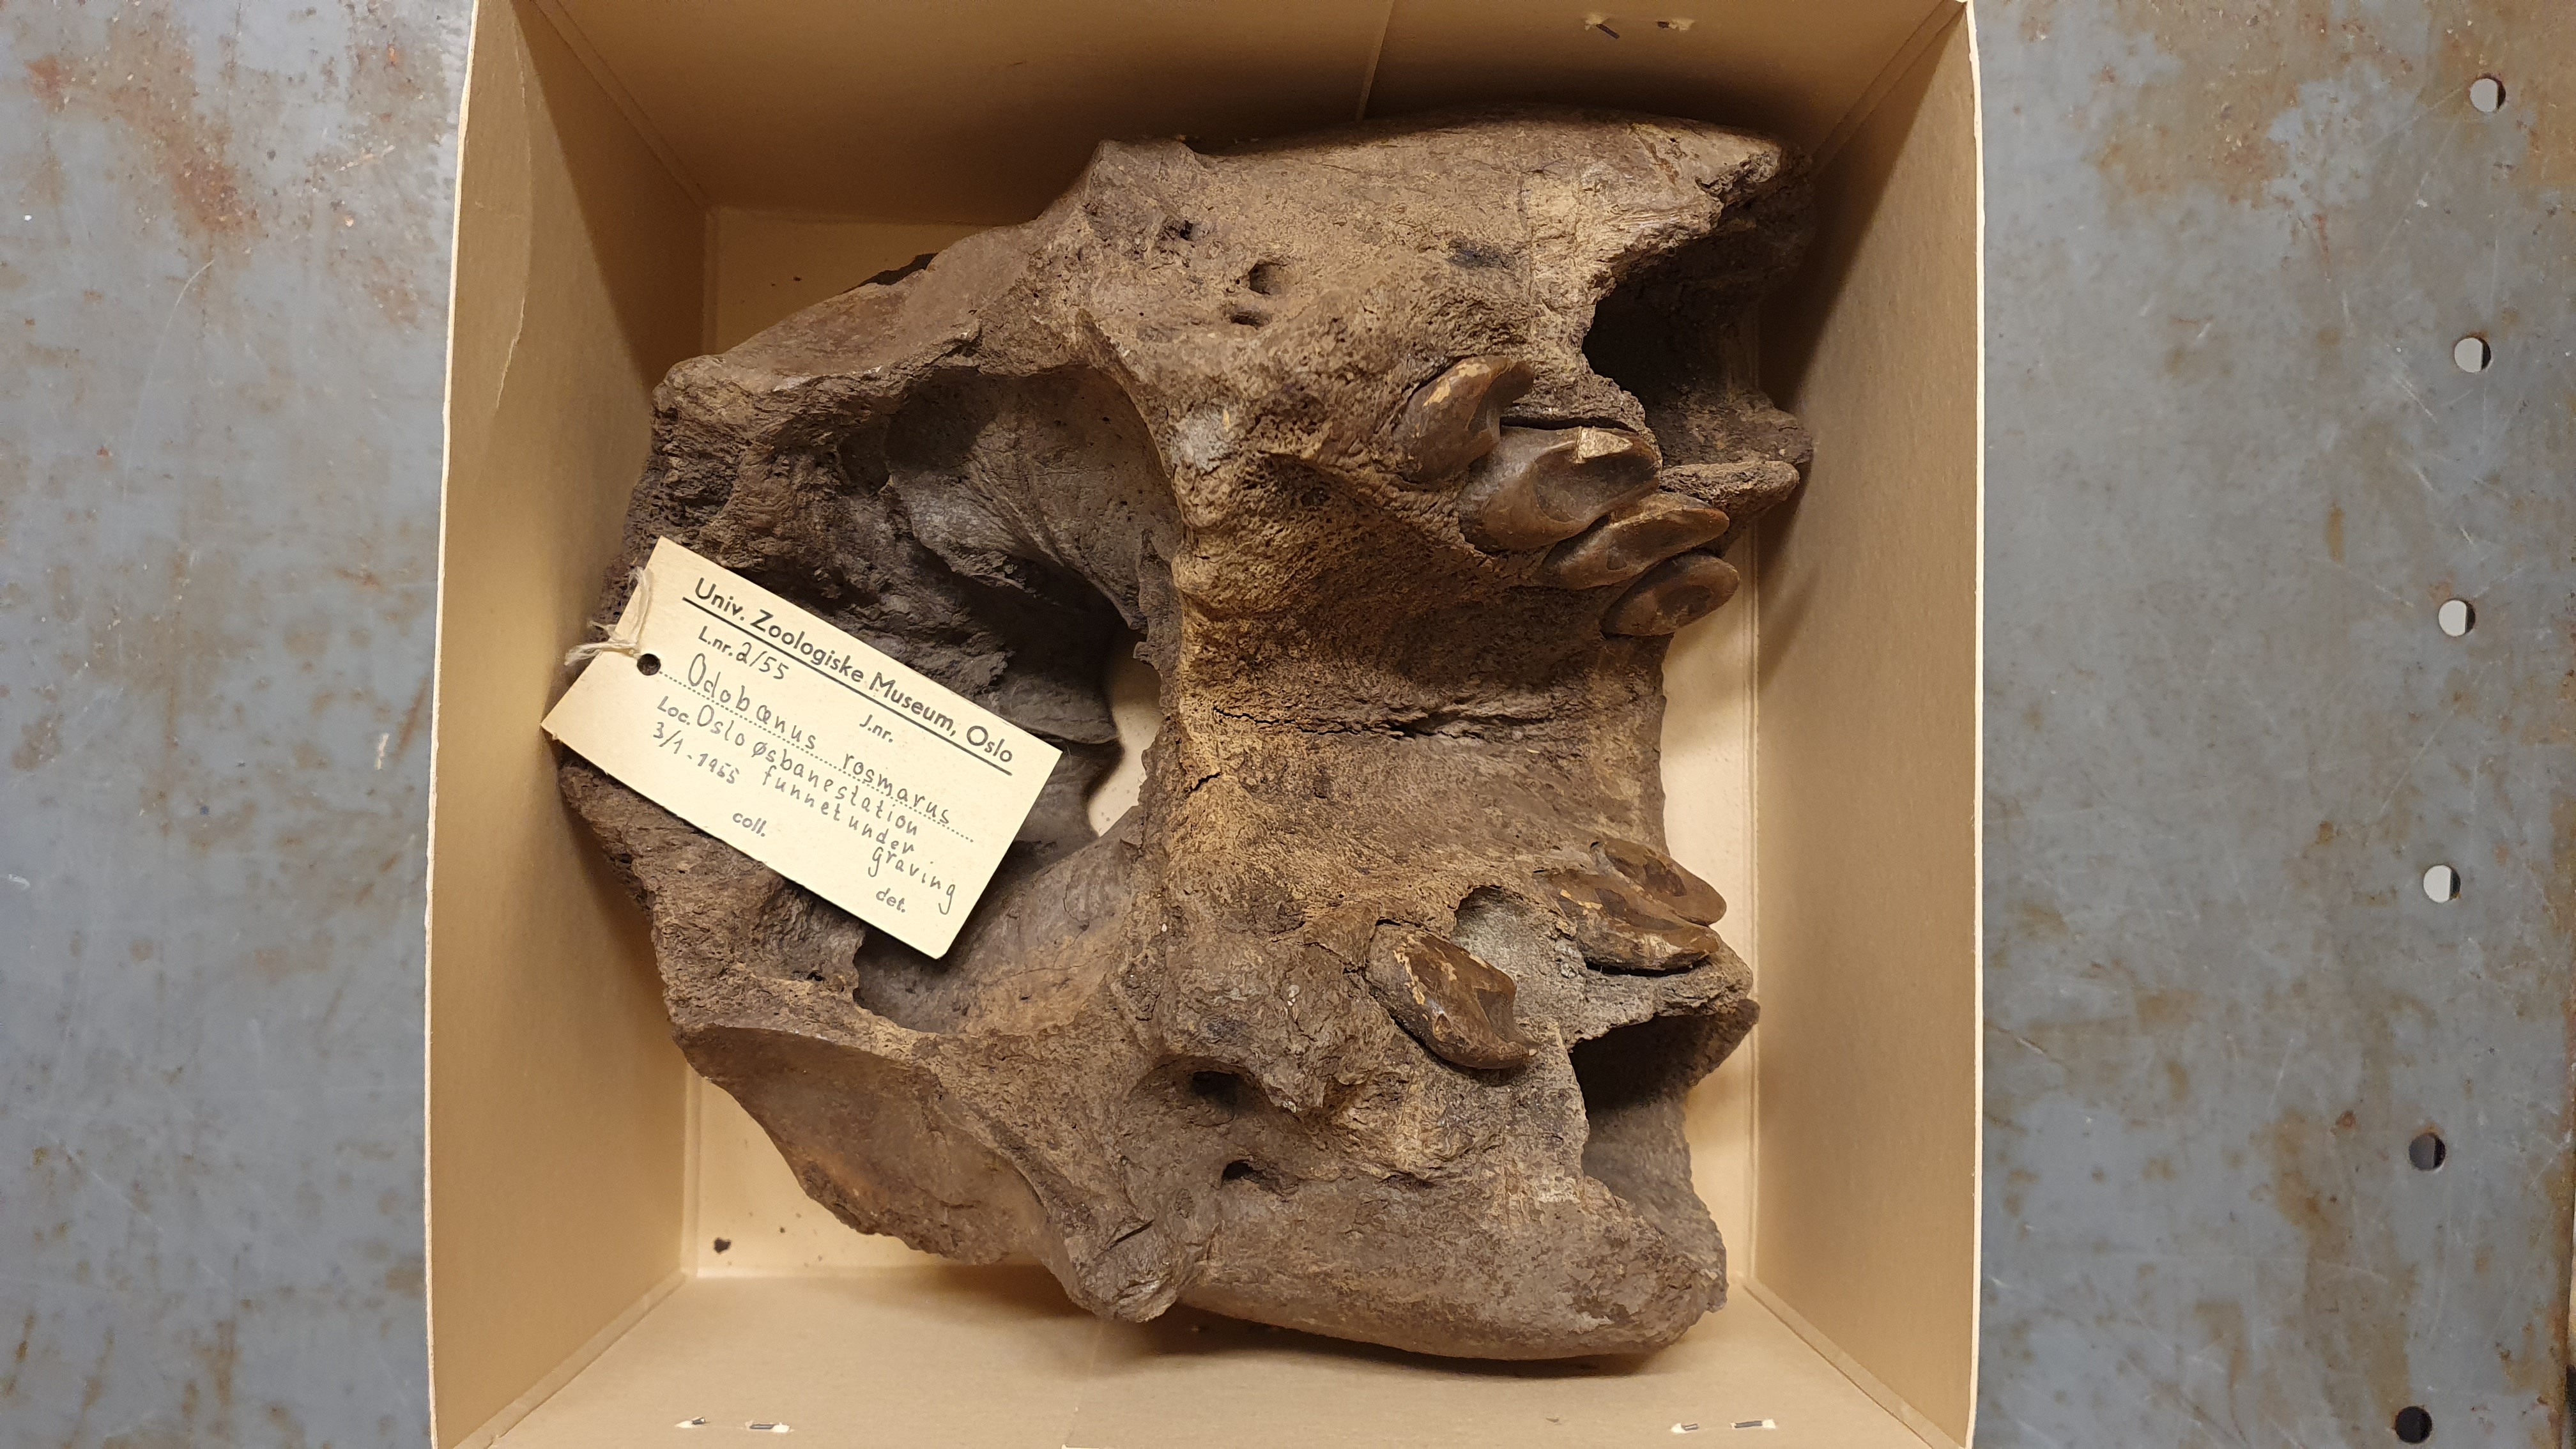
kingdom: Animalia
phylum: Chordata
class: Mammalia
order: Carnivora
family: Odobenidae
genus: Odobenus
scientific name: Odobenus rosmarus
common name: Walrus
